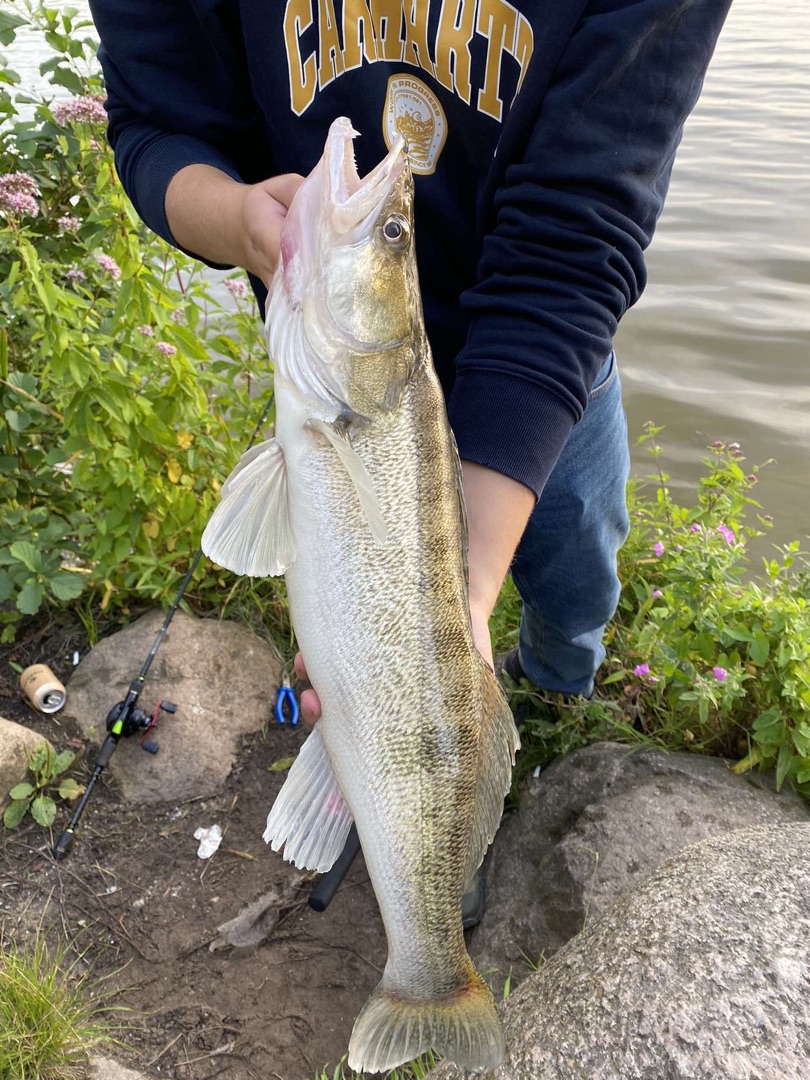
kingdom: Animalia
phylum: Chordata
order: Perciformes
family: Percidae
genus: Sander
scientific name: Sander lucioperca
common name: Sandart
